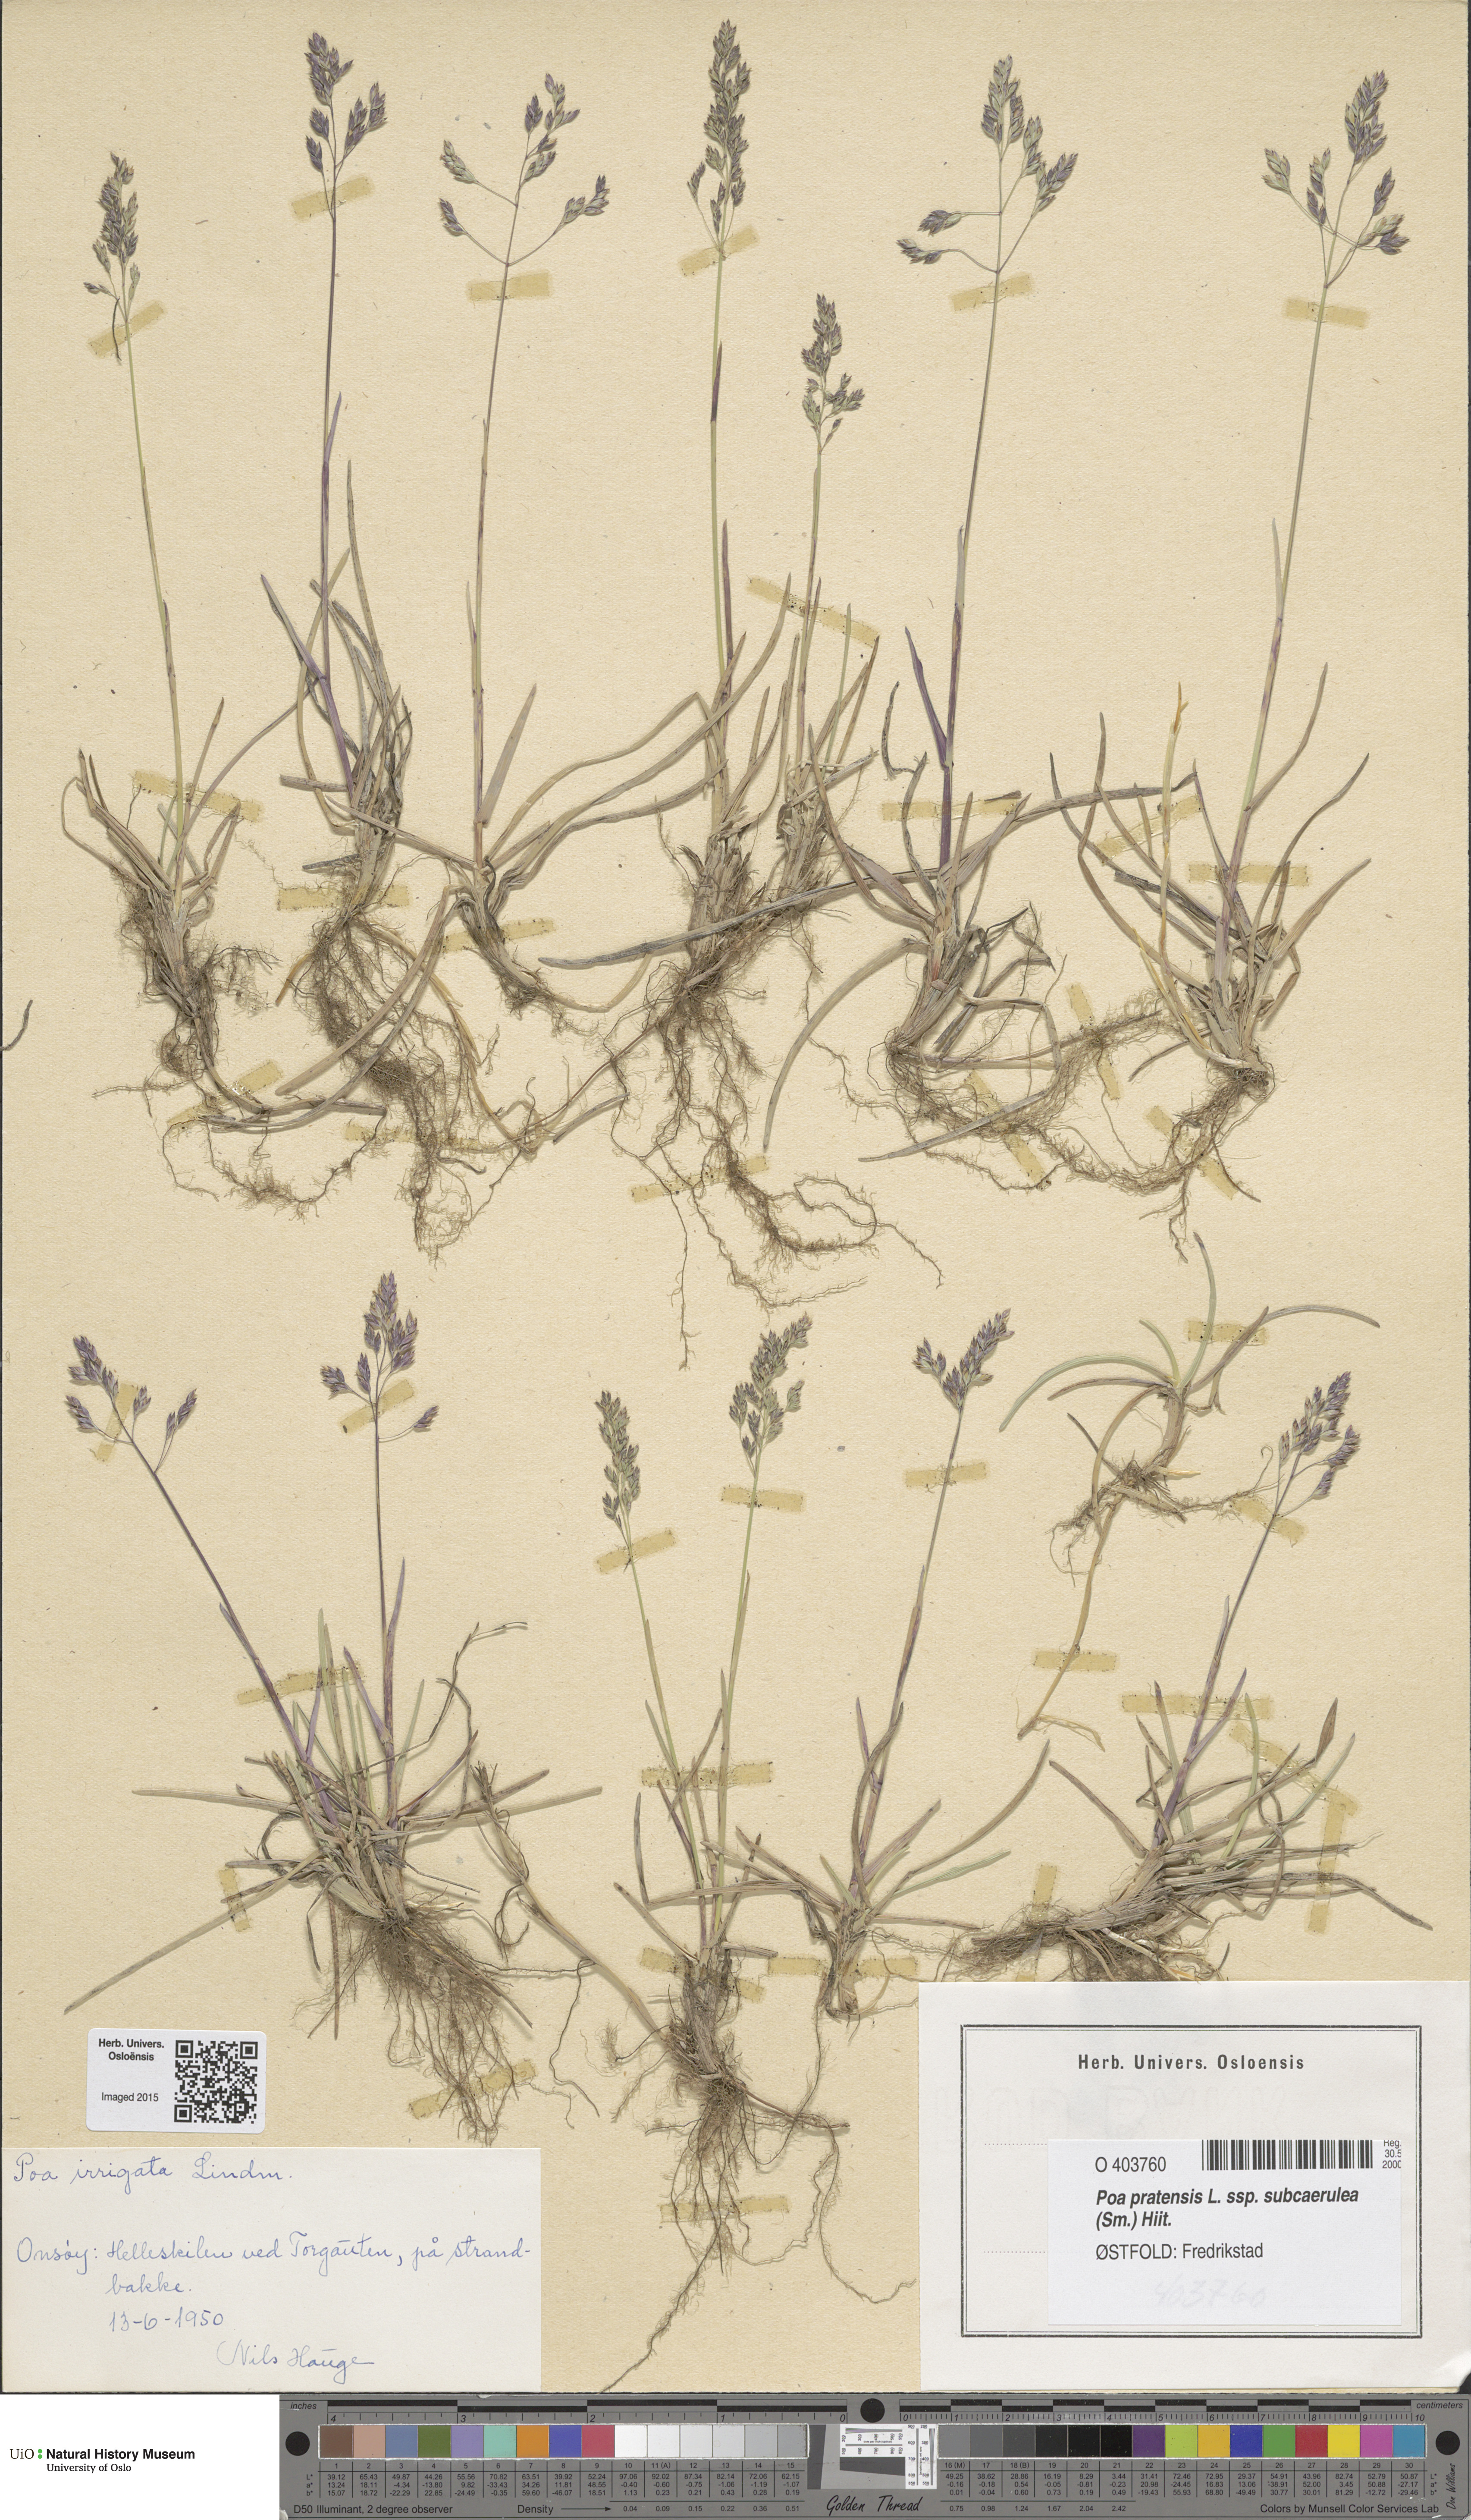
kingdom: Plantae
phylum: Tracheophyta
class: Liliopsida
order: Poales
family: Poaceae
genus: Poa
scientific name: Poa humilis
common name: Spreading meadow-grass
